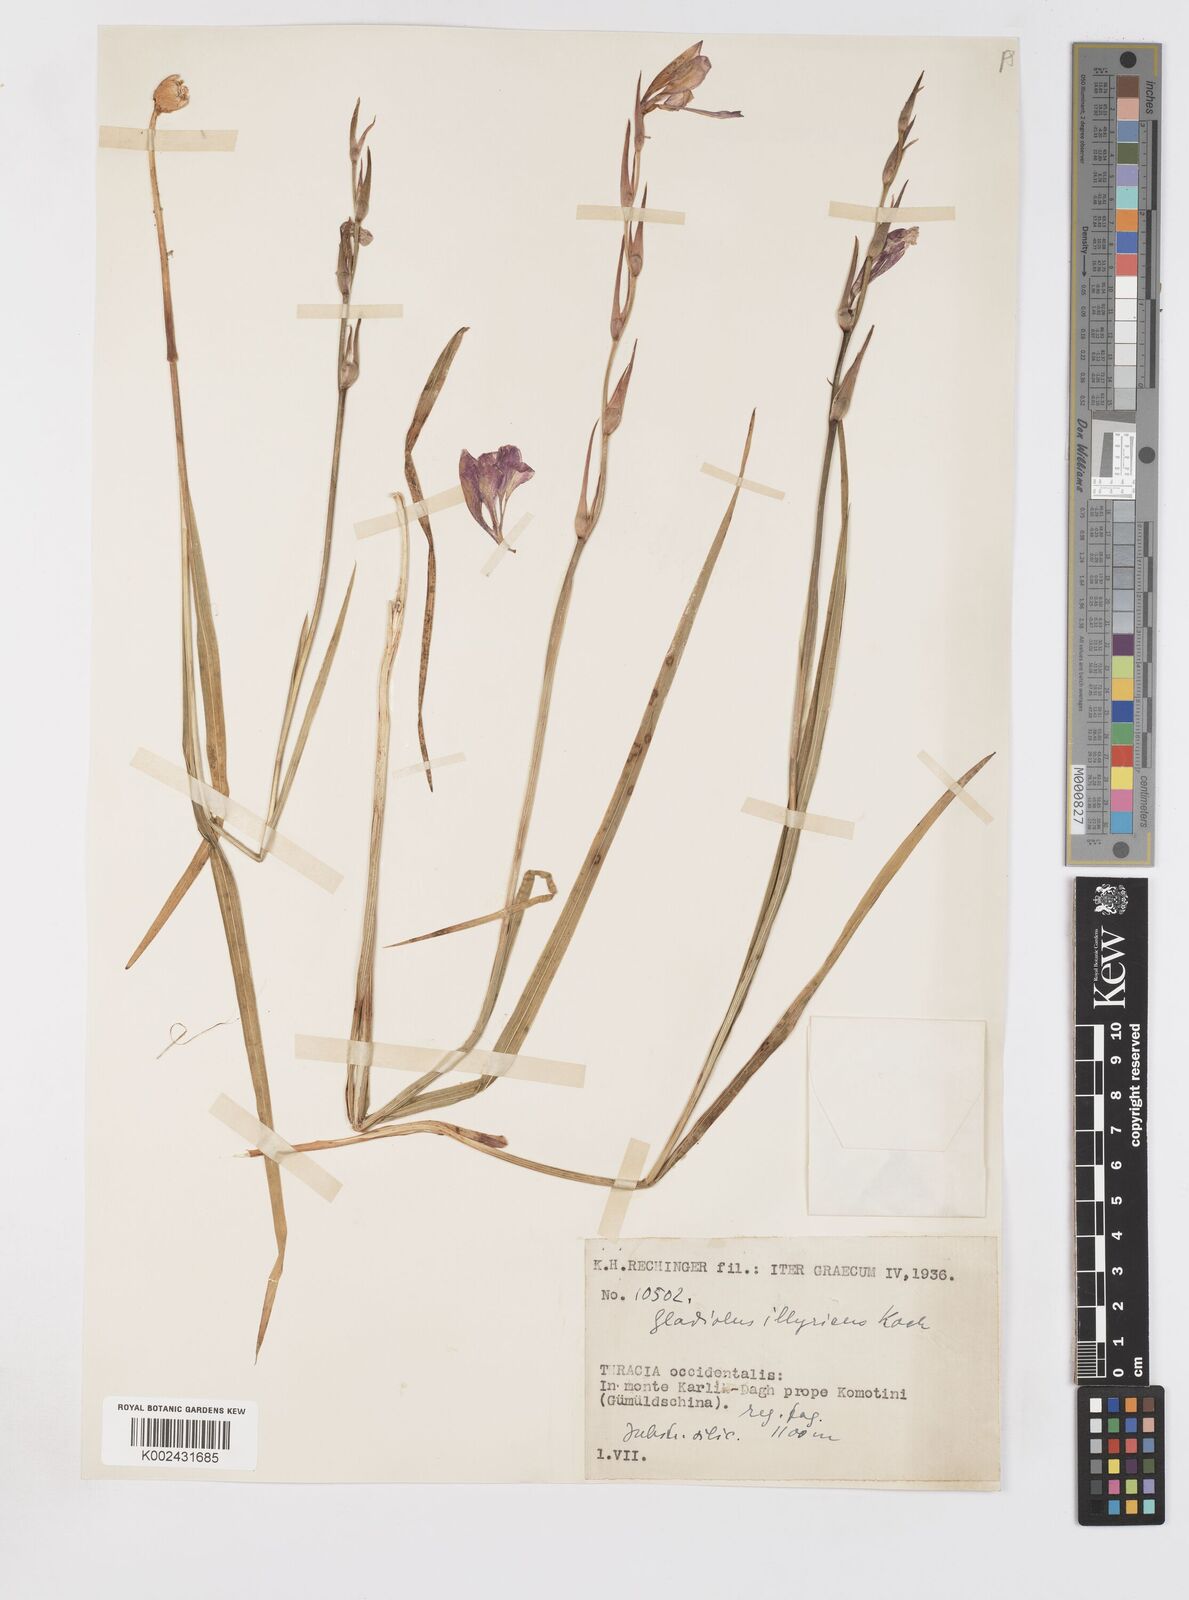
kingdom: Plantae
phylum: Tracheophyta
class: Liliopsida
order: Asparagales
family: Iridaceae
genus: Gladiolus
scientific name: Gladiolus illyricus
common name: Wild gladiolus
